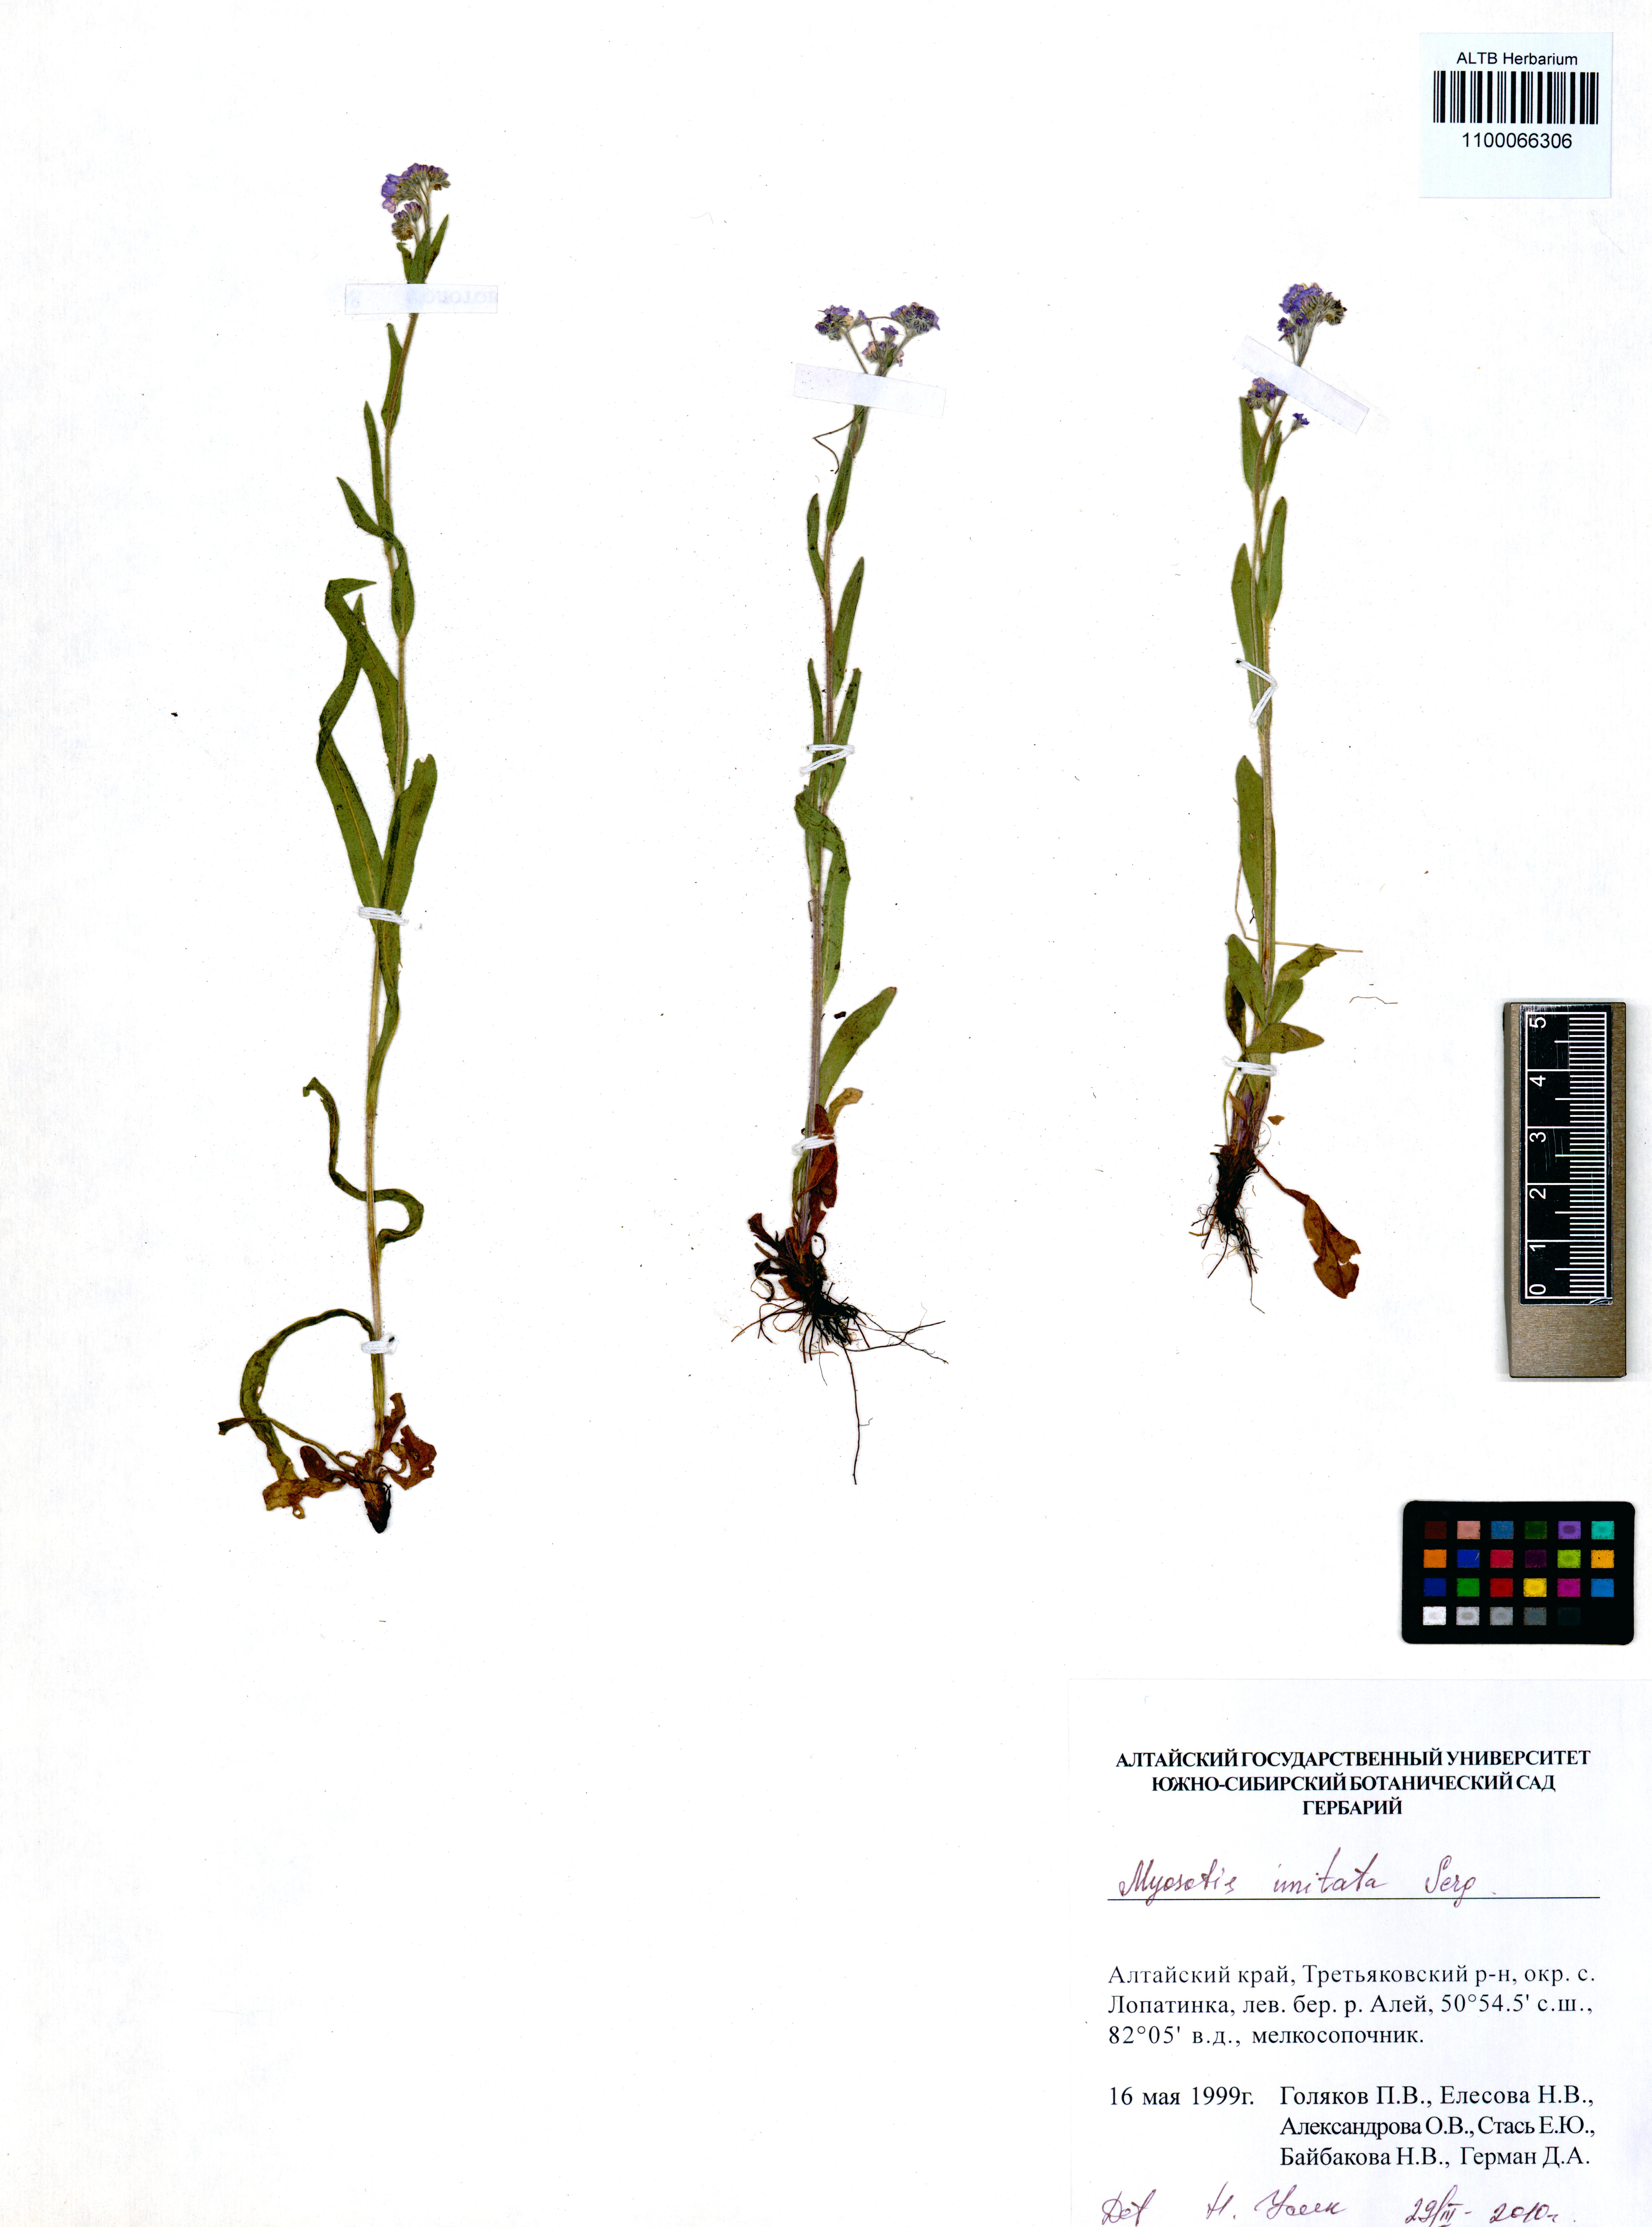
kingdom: Plantae
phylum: Tracheophyta
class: Magnoliopsida
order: Boraginales
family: Boraginaceae
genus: Myosotis
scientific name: Myosotis imitata
